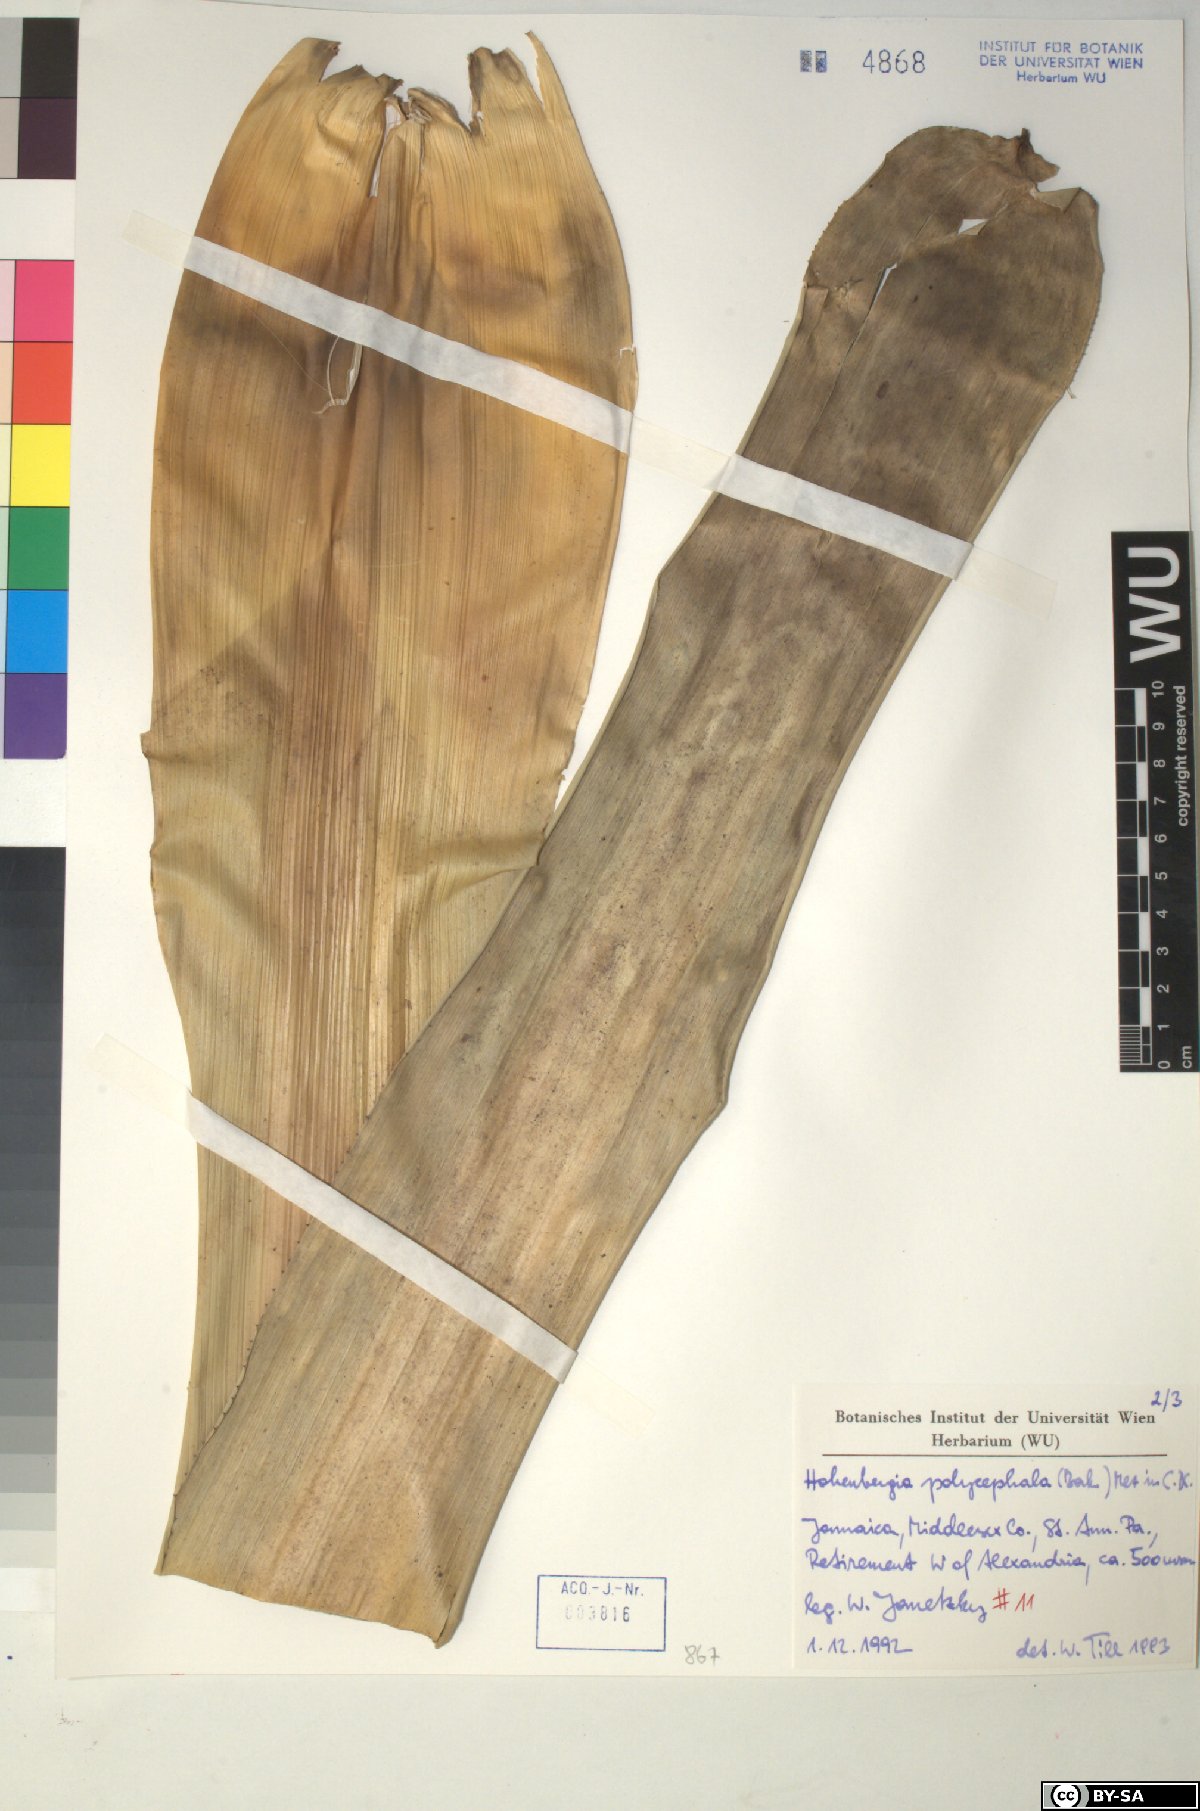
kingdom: Plantae
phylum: Tracheophyta
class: Liliopsida
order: Poales
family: Bromeliaceae
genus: Wittmackia
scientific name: Wittmackia polycephala
